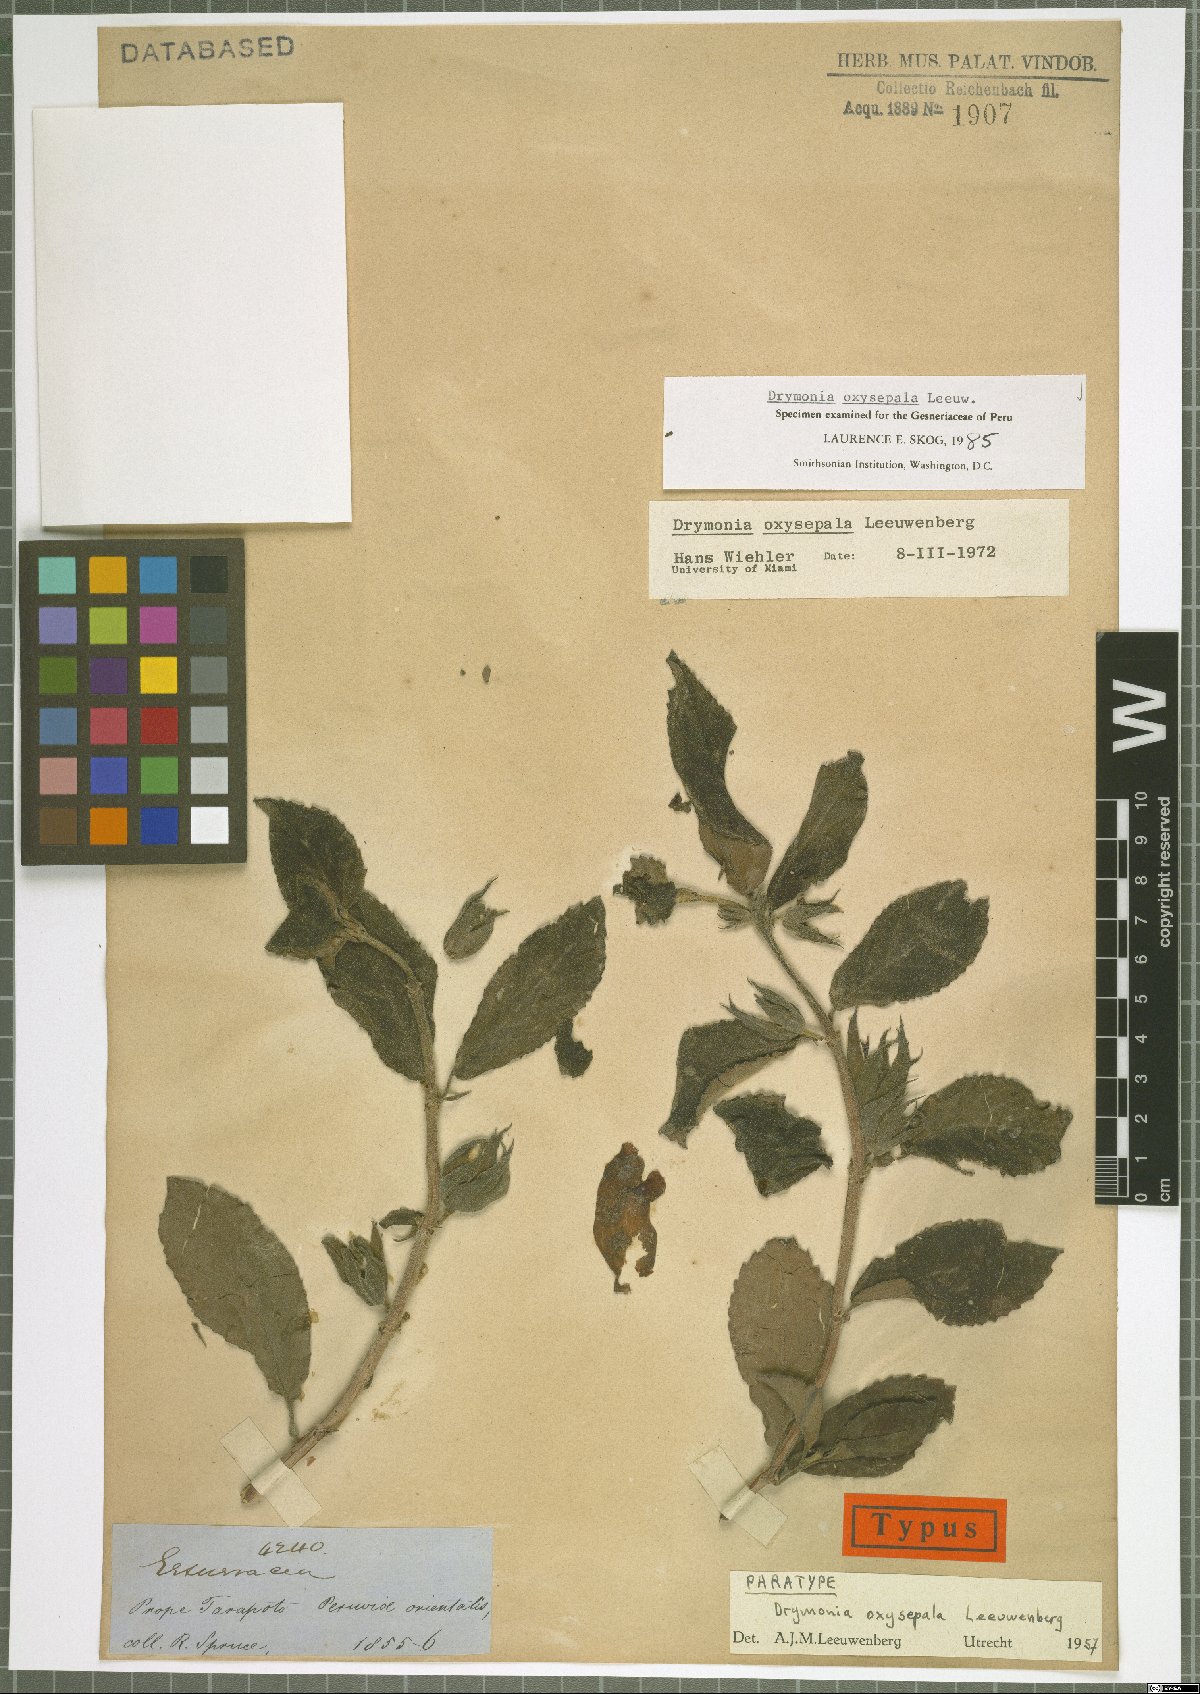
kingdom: Plantae
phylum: Tracheophyta
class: Magnoliopsida
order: Lamiales
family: Gesneriaceae
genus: Drymonia
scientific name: Drymonia oxysepala
